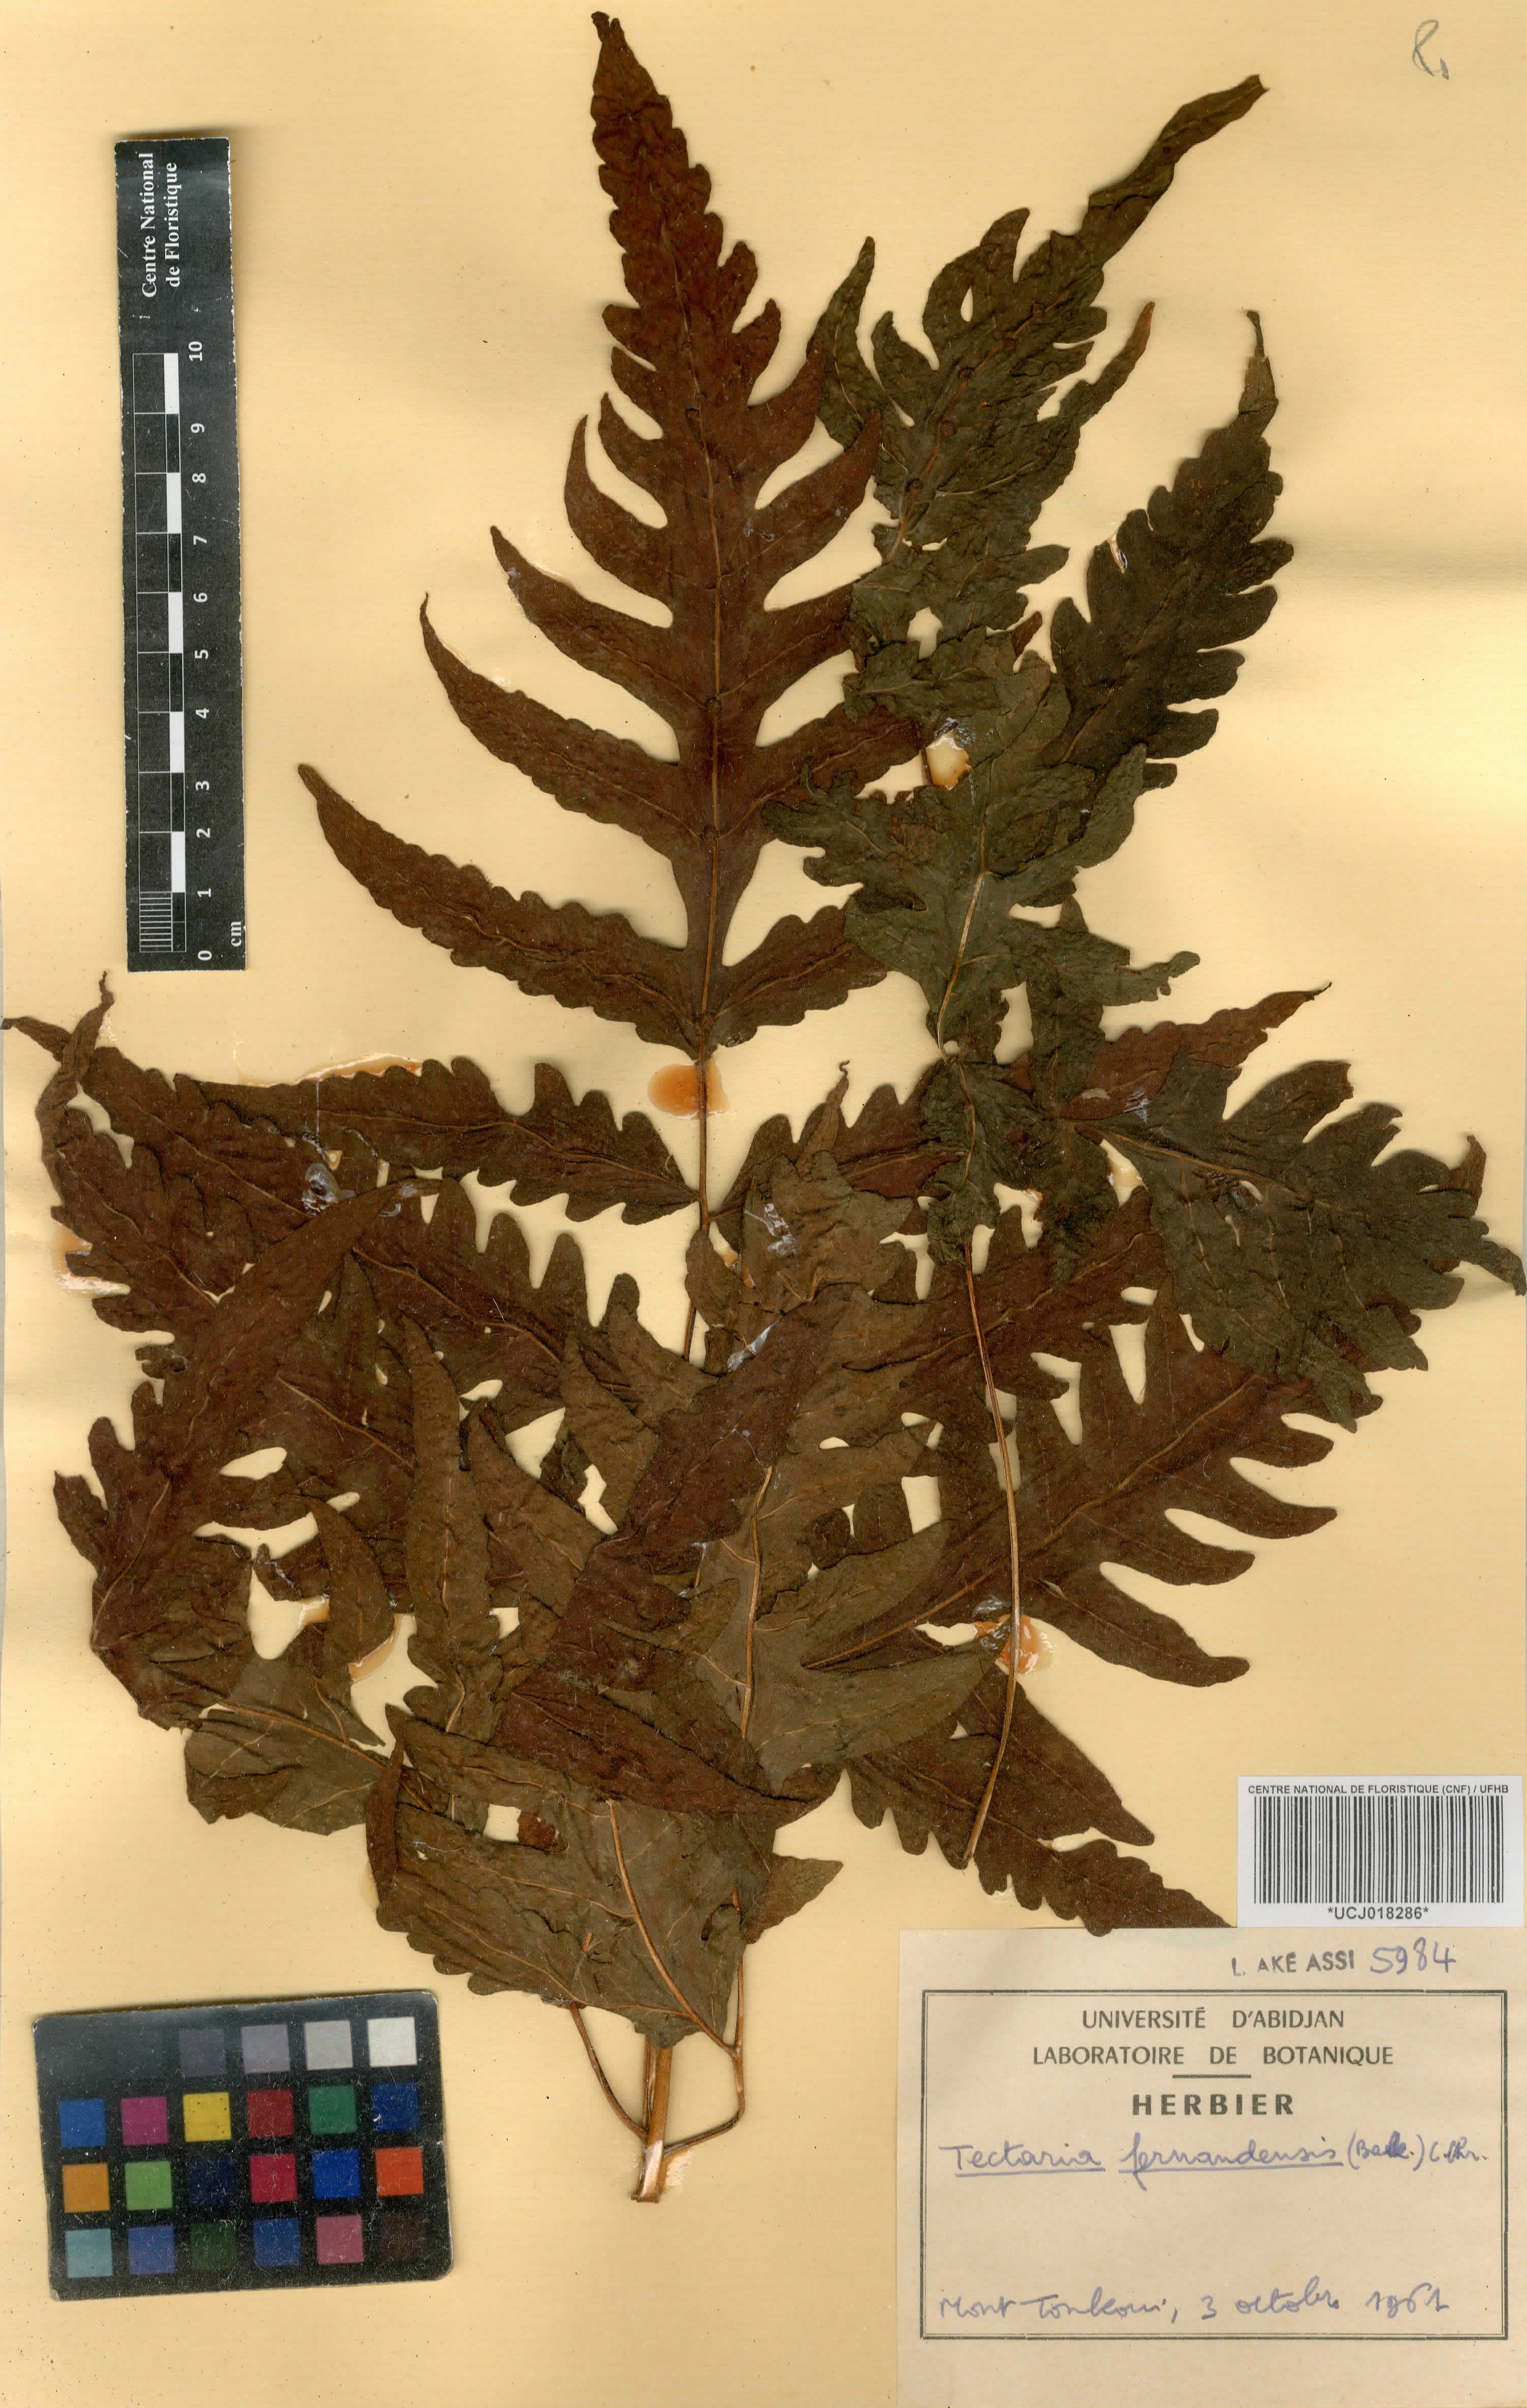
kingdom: Plantae
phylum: Tracheophyta
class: Polypodiopsida
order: Polypodiales
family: Tectariaceae
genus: Tectaria
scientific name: Tectaria fernandensis
